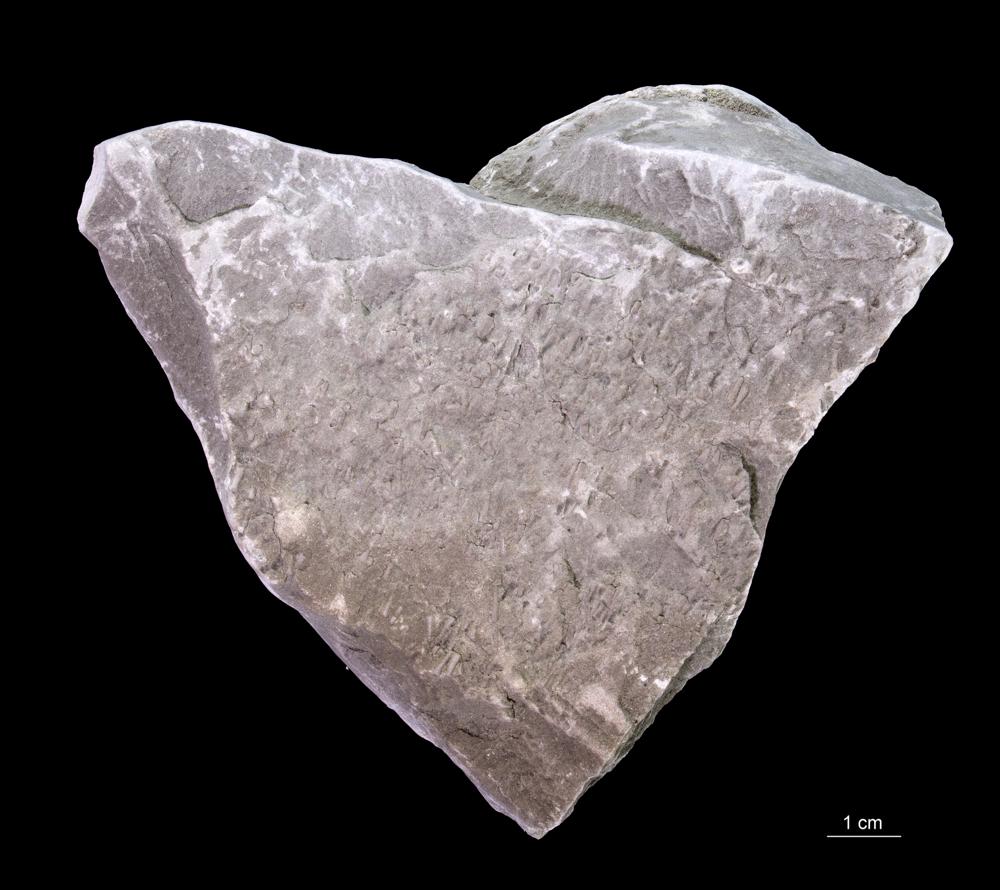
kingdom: Animalia
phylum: Annelida
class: Polychaeta
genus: Volborthella
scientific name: Volborthella tenuis
